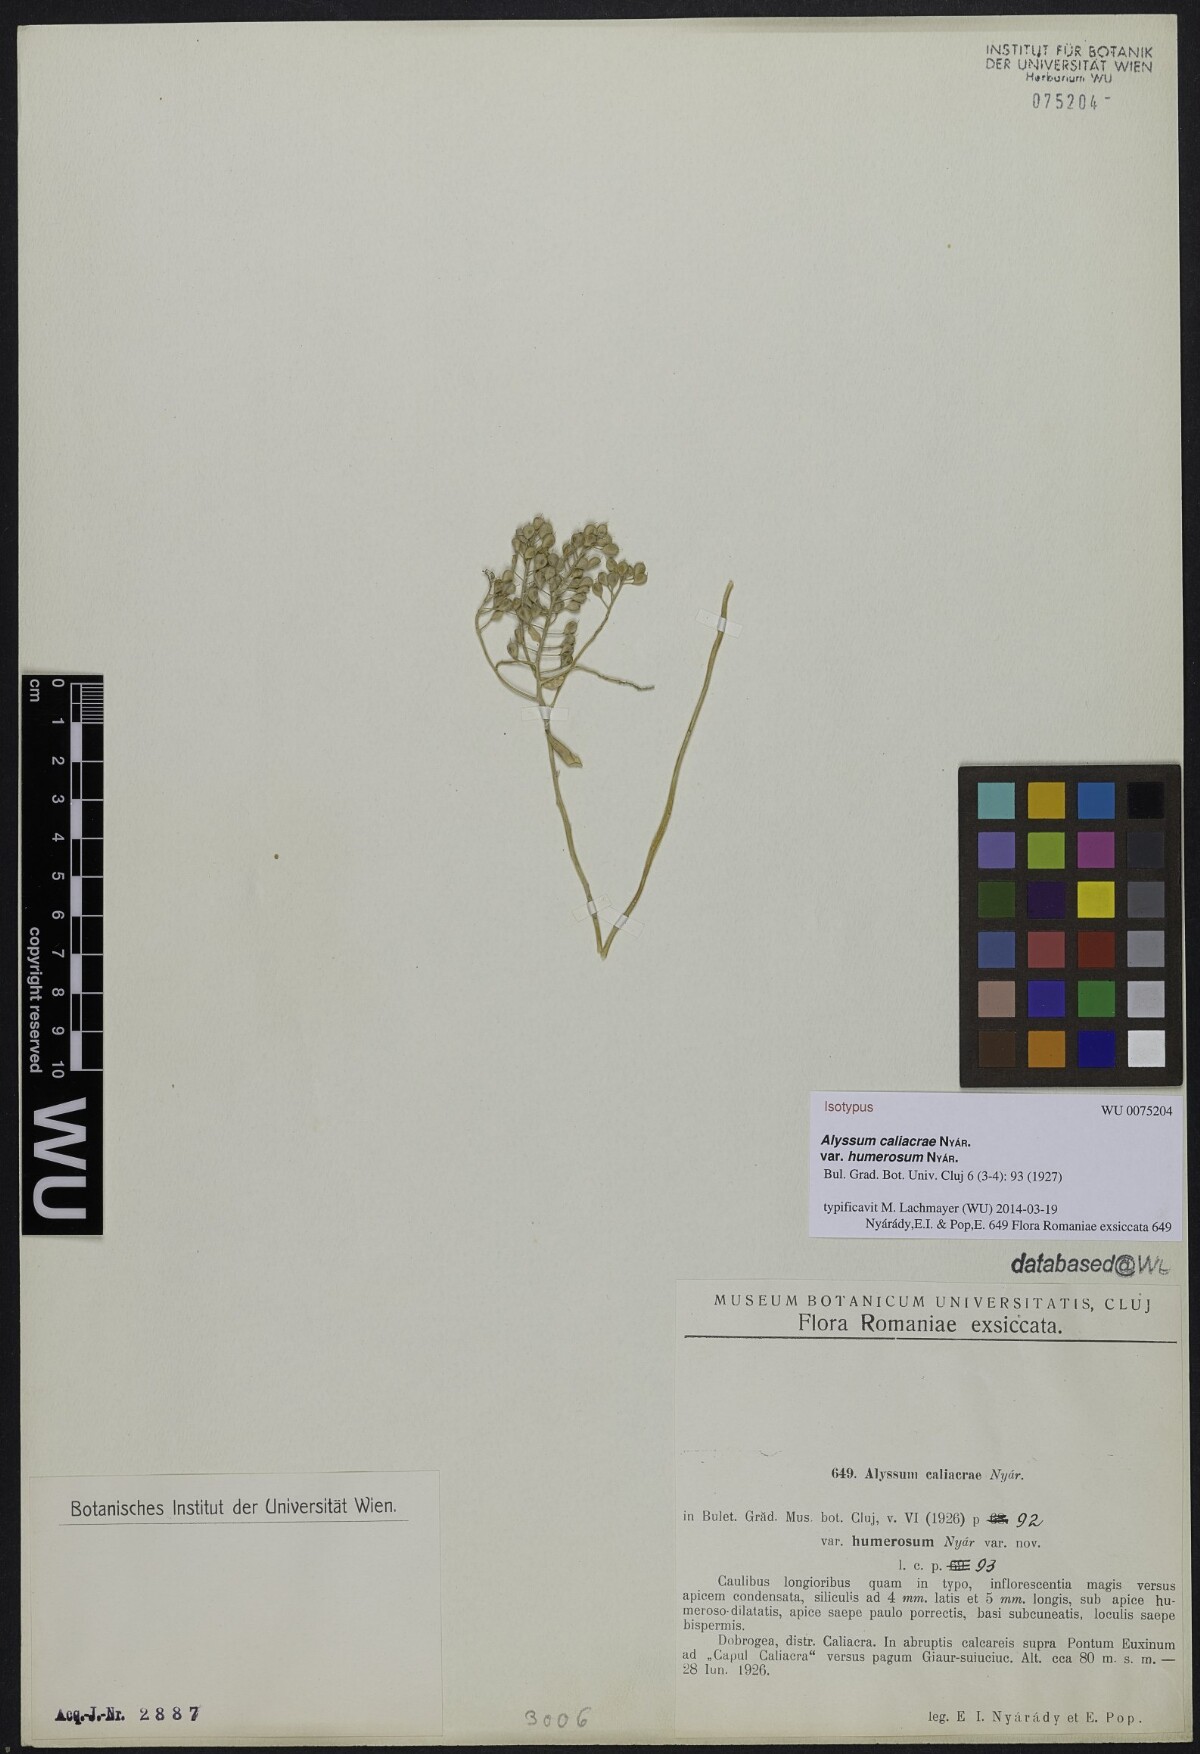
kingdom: Plantae
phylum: Tracheophyta
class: Magnoliopsida
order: Brassicales
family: Brassicaceae
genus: Odontarrhena
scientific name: Odontarrhena caliacrae
